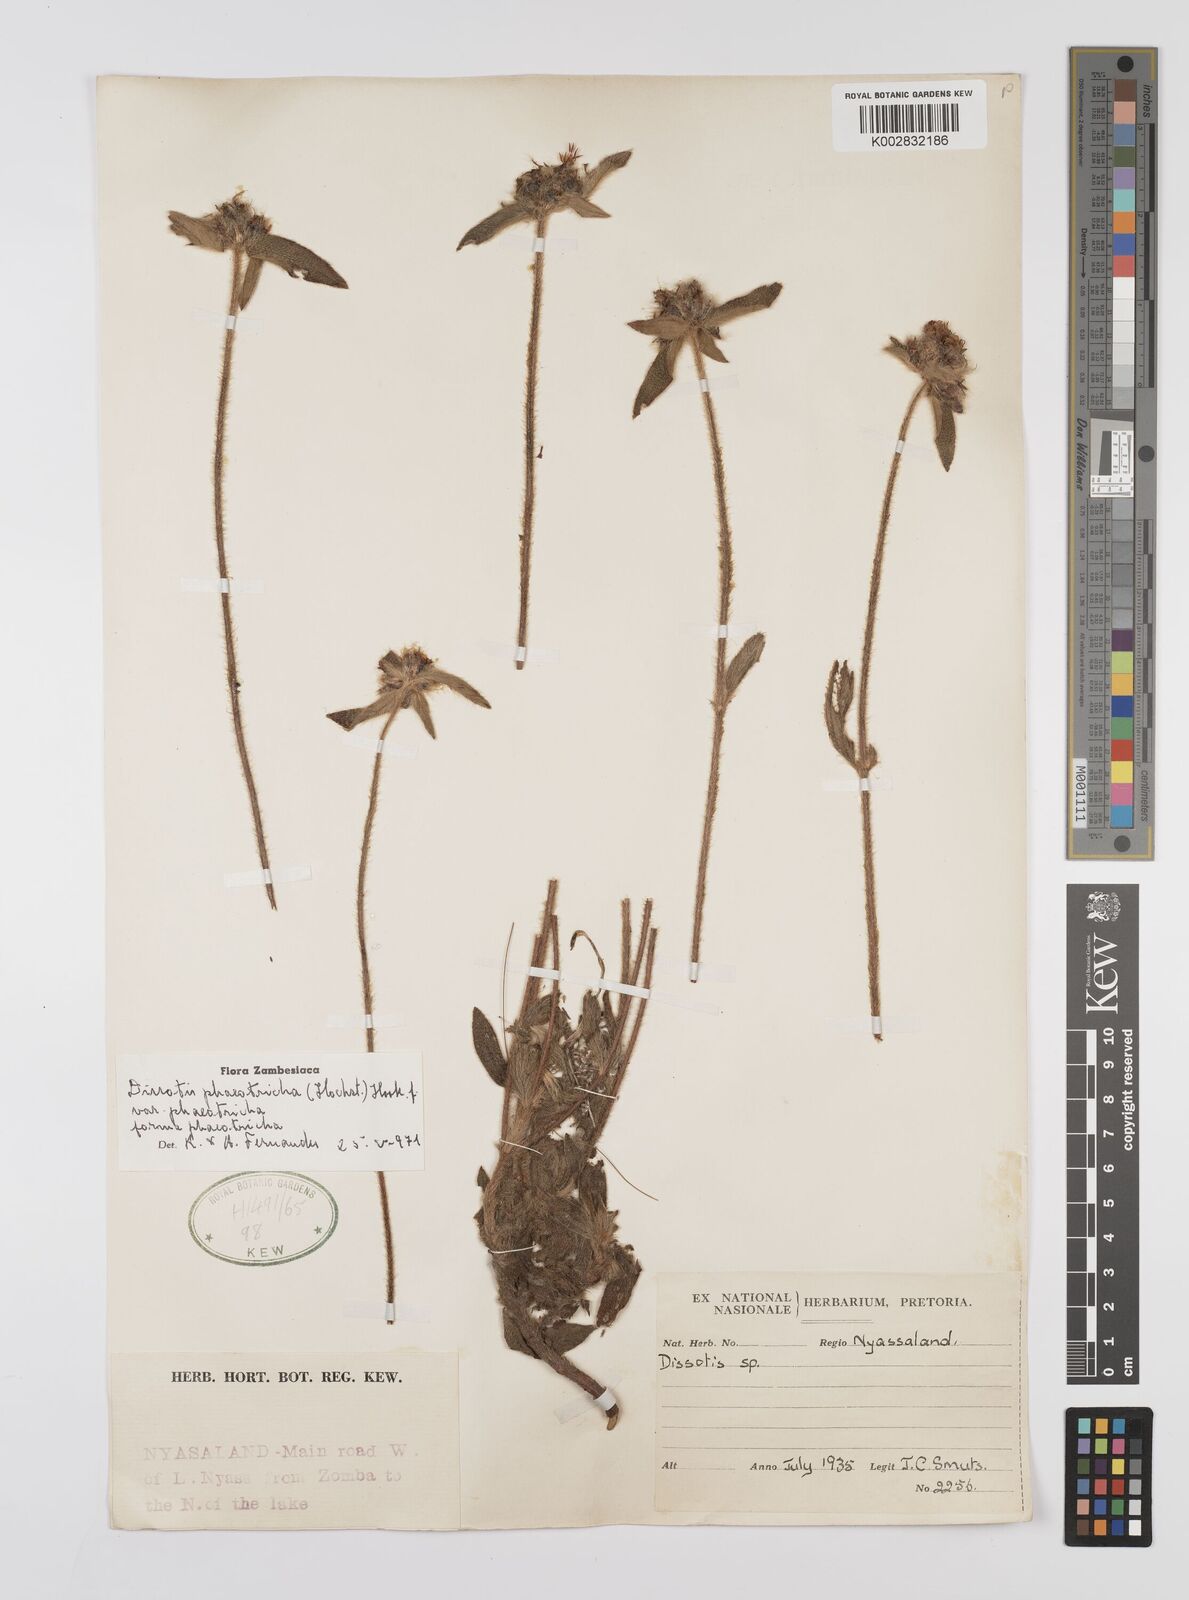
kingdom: Plantae
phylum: Tracheophyta
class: Magnoliopsida
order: Myrtales
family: Melastomataceae
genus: Antherotoma
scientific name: Antherotoma phaeotricha
